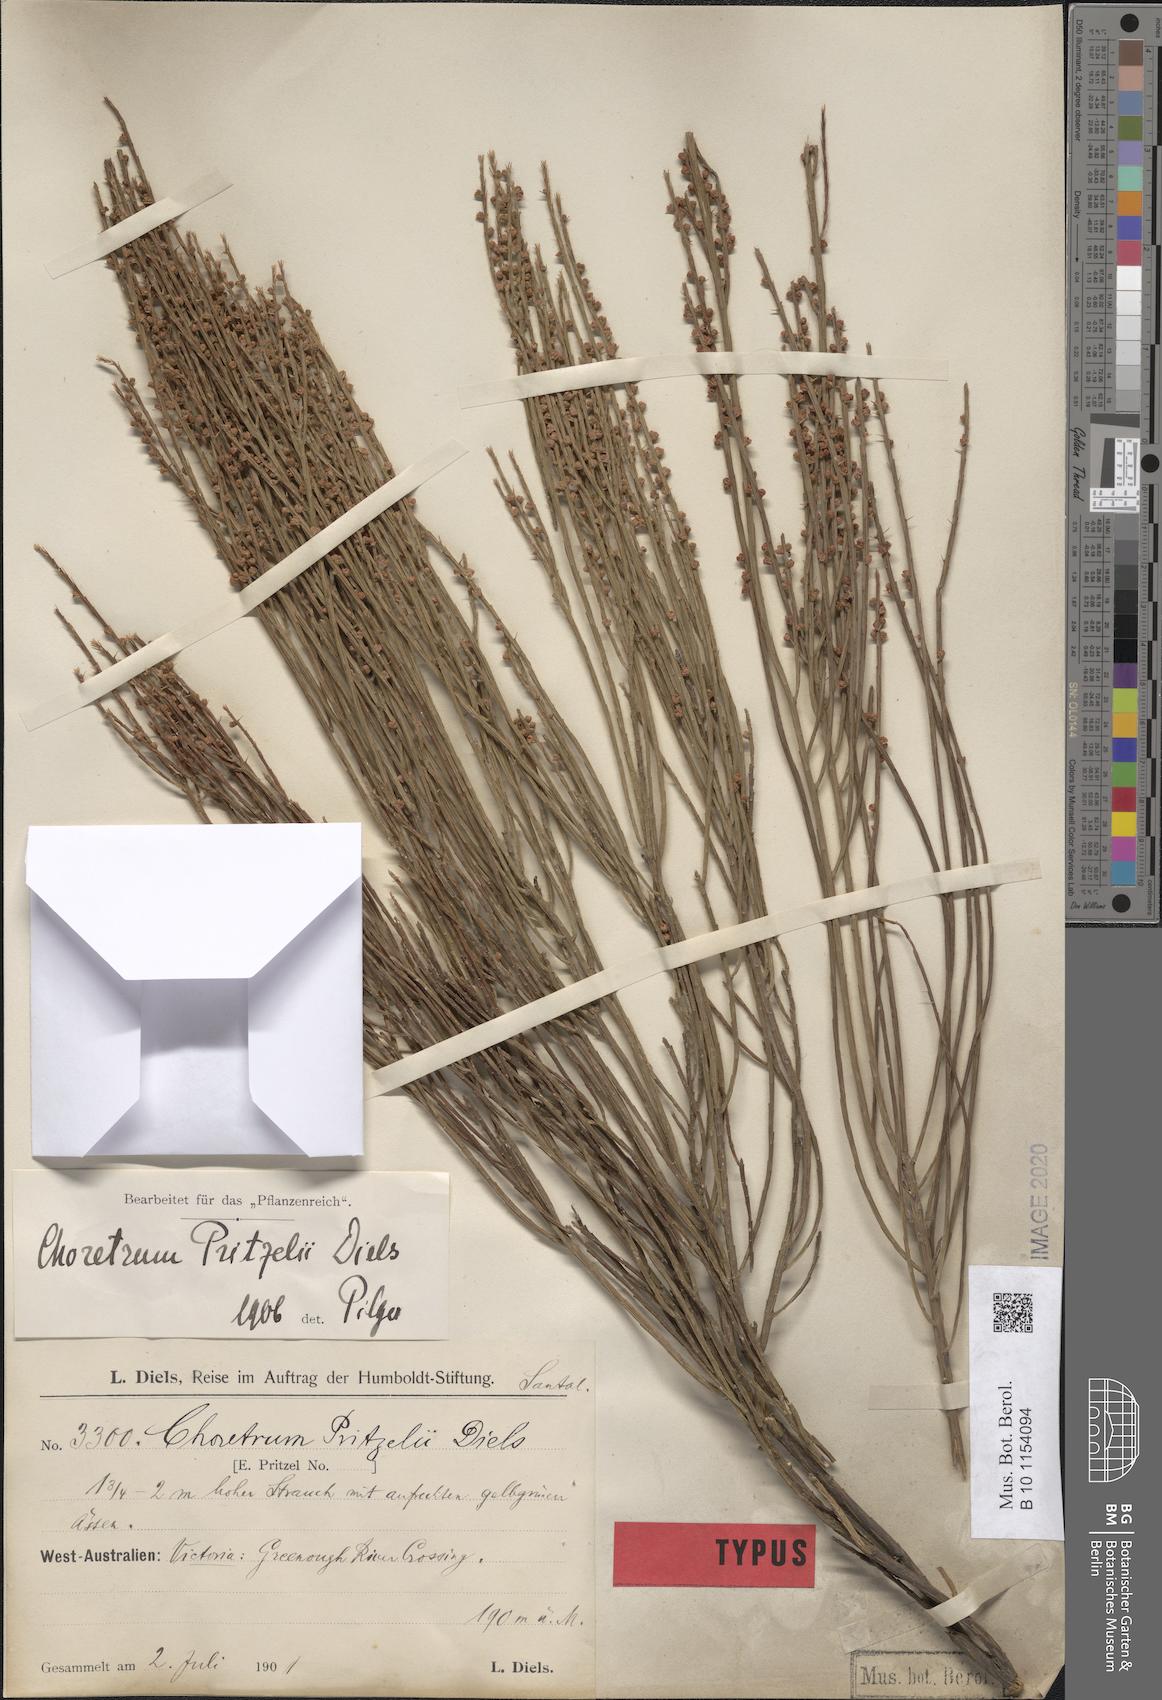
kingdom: Plantae
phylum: Tracheophyta
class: Magnoliopsida
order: Santalales
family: Amphorogynaceae
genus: Choretrum
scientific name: Choretrum pritzelii
